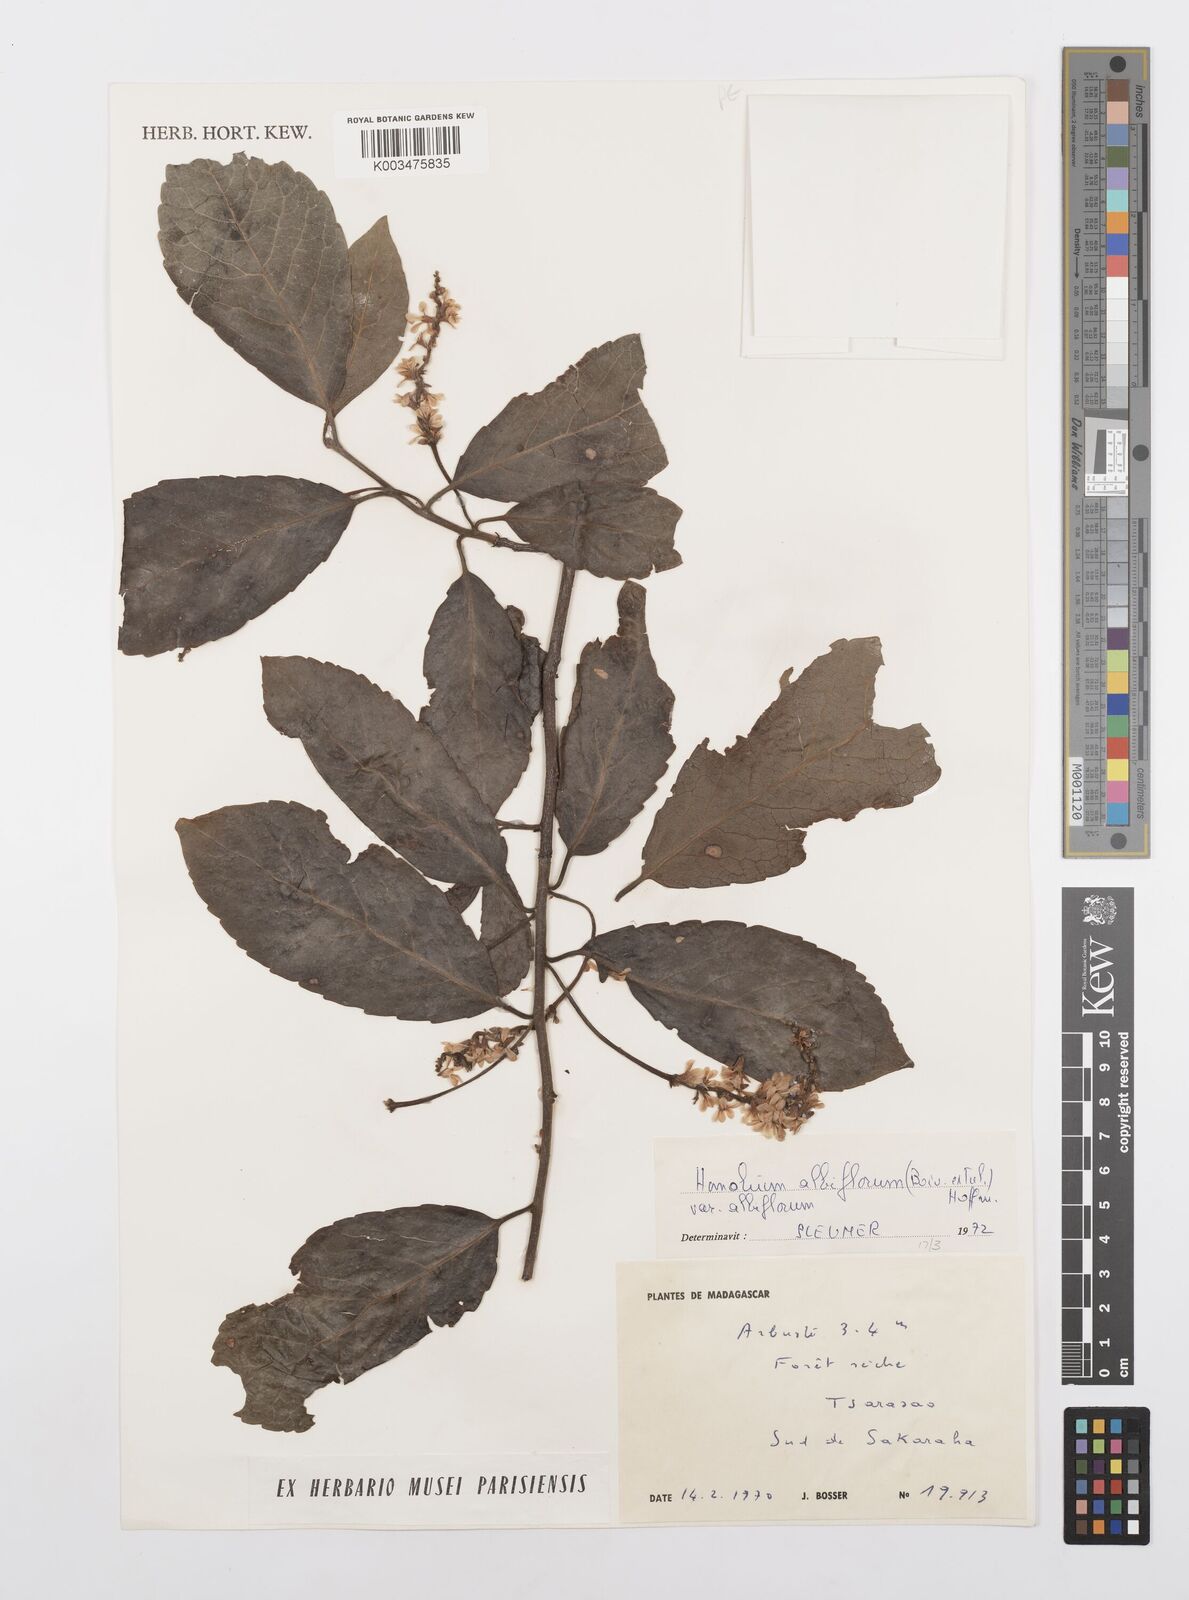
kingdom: Plantae
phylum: Tracheophyta
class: Magnoliopsida
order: Malpighiales
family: Salicaceae
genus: Homalium
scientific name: Homalium albiflorum
